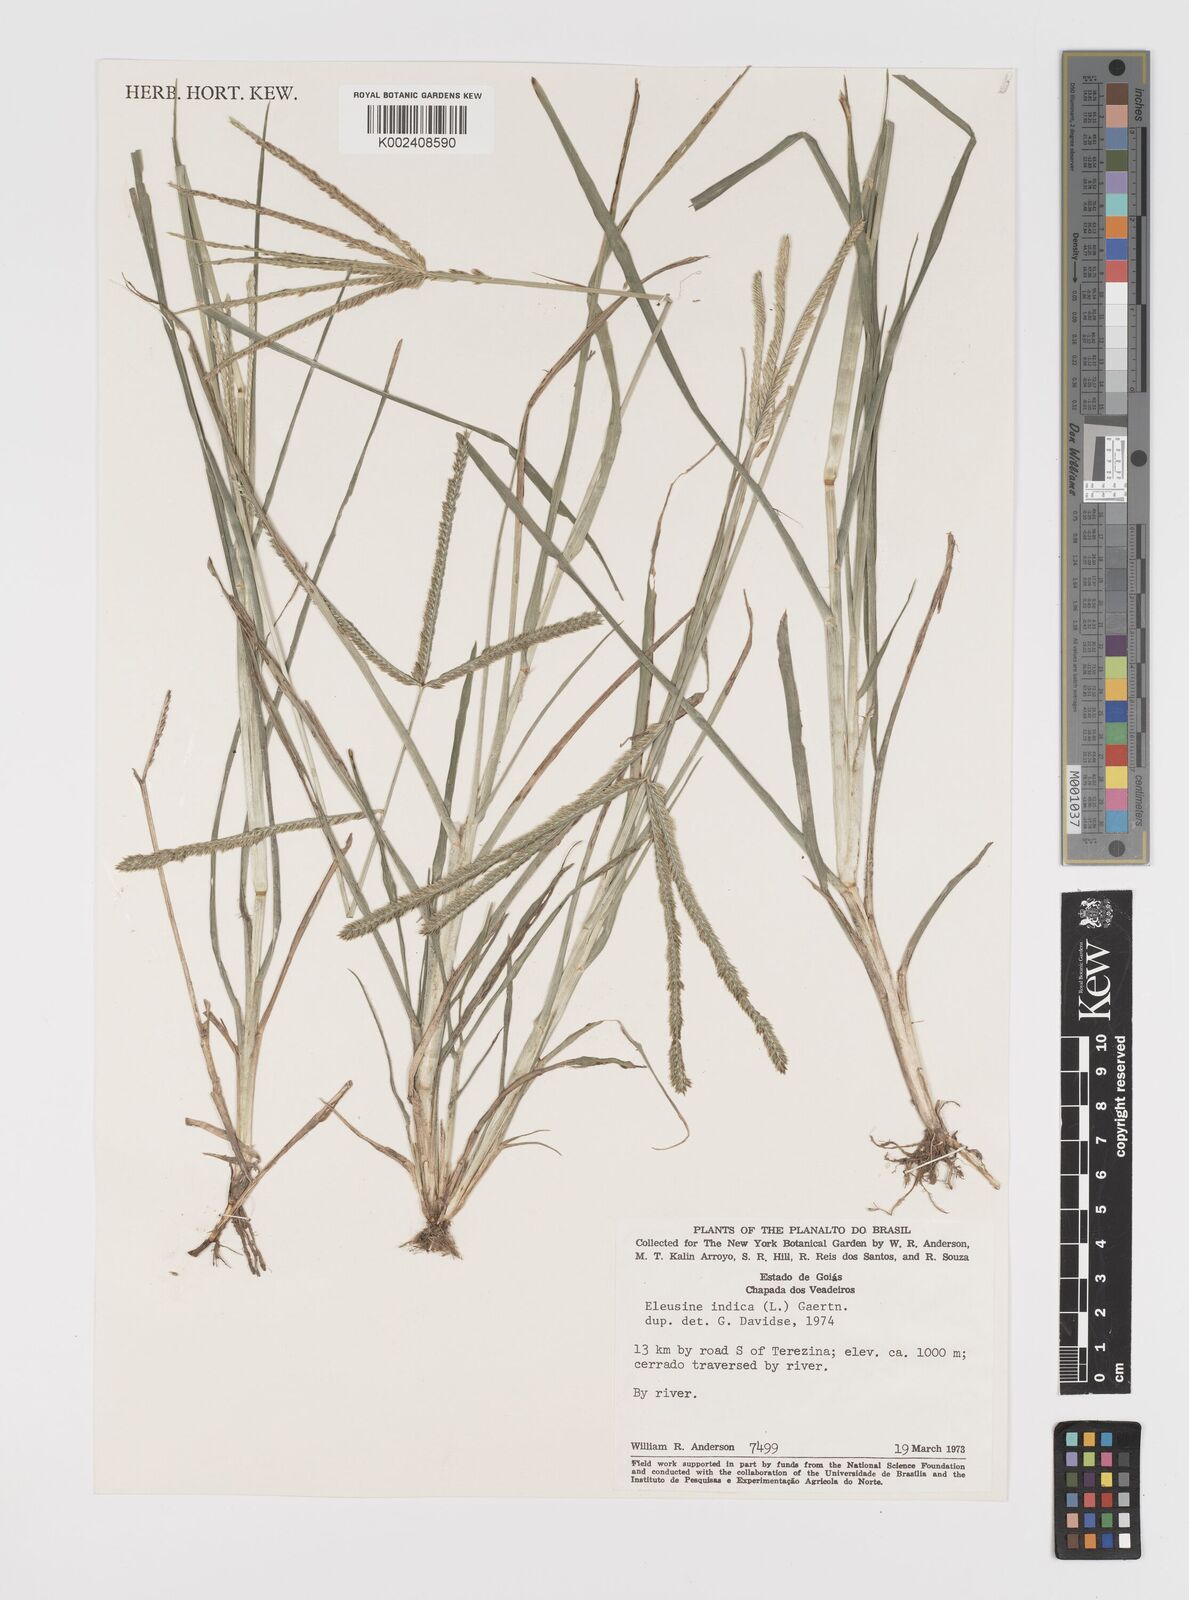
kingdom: Plantae
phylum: Tracheophyta
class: Liliopsida
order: Poales
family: Poaceae
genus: Eleusine
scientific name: Eleusine indica
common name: Yard-grass
